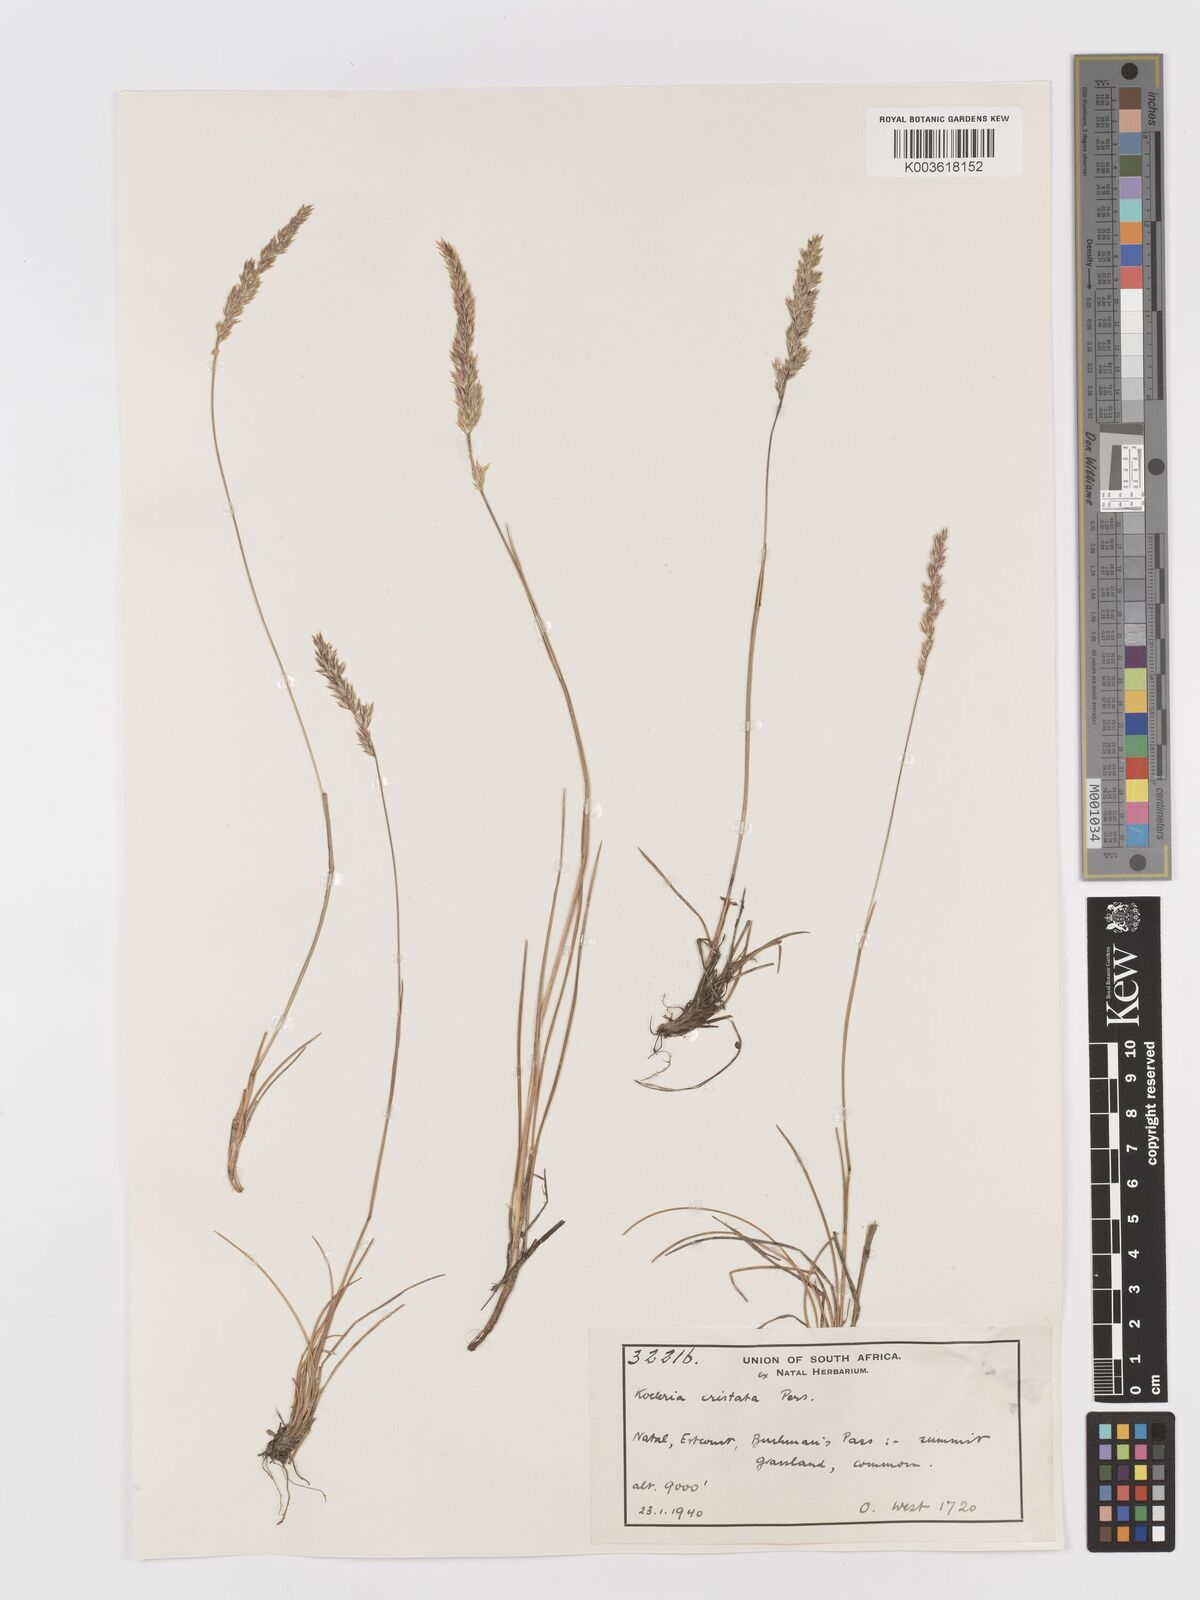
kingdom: Plantae
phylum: Tracheophyta
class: Liliopsida
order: Poales
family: Poaceae
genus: Koeleria
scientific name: Koeleria capensis
